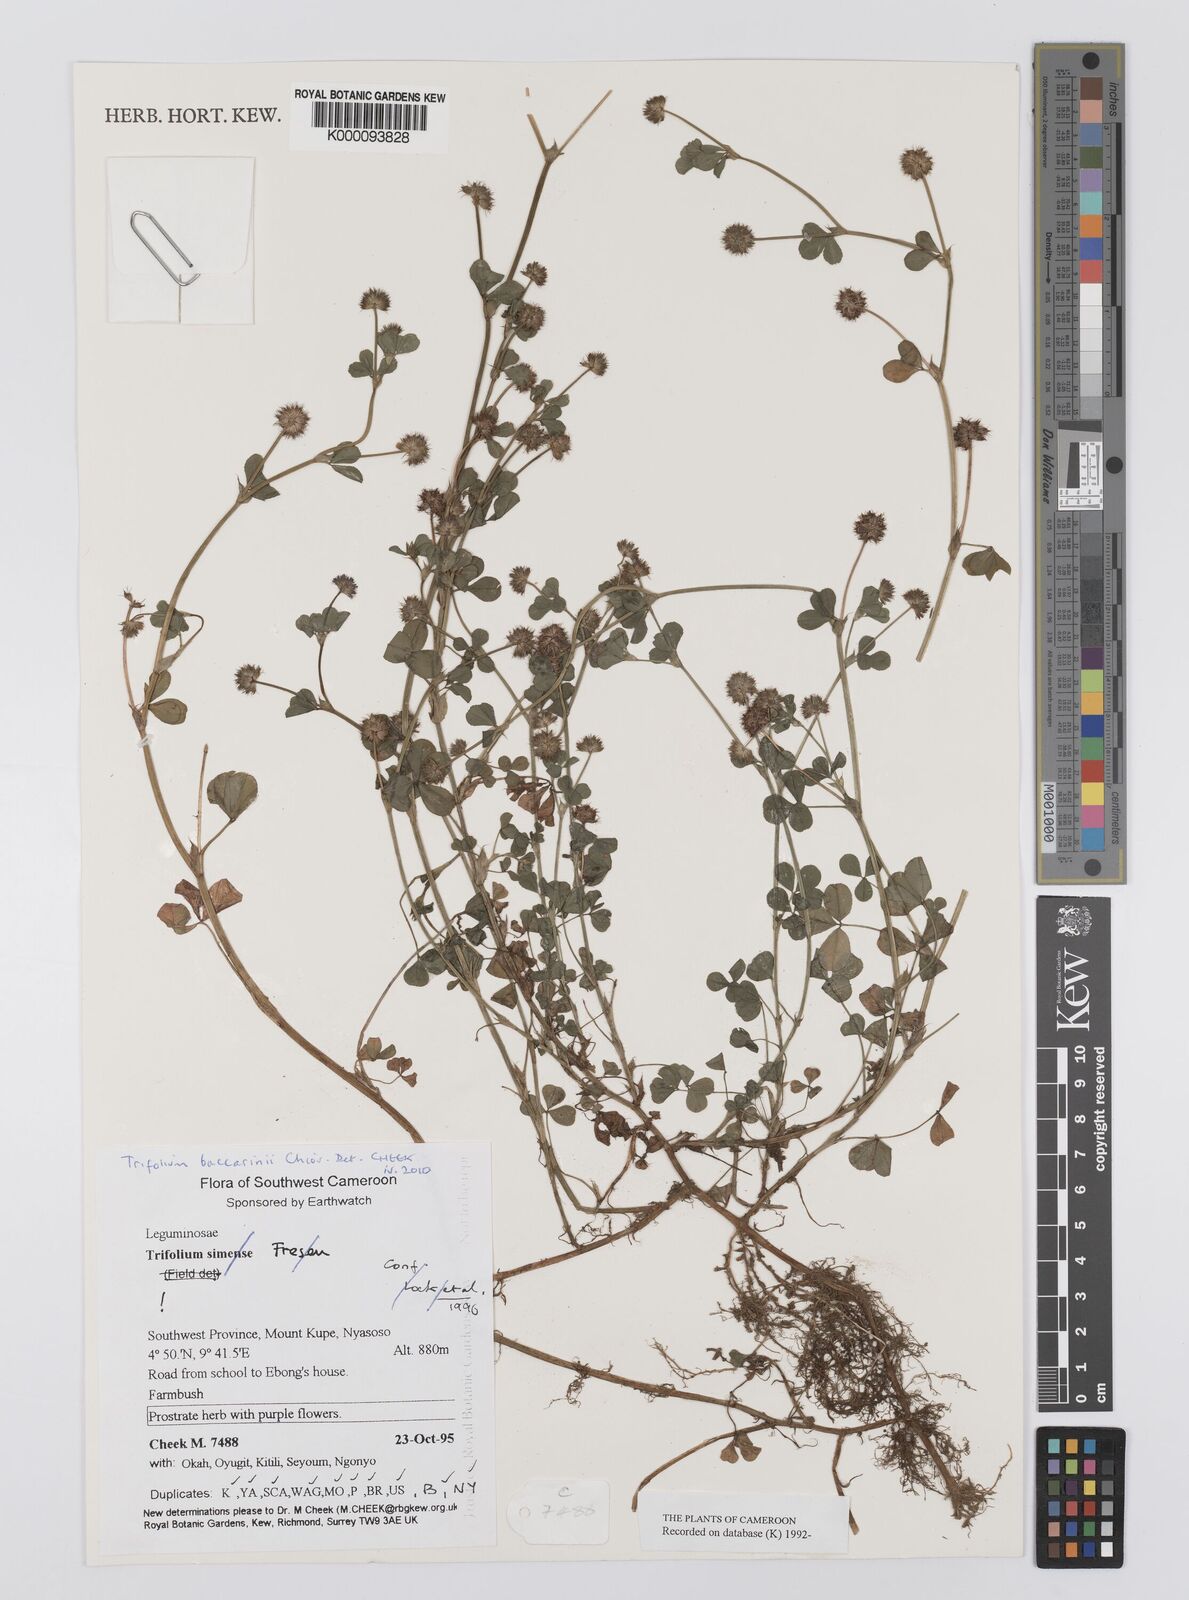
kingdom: Plantae
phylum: Tracheophyta
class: Magnoliopsida
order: Fabales
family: Fabaceae
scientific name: Fabaceae
